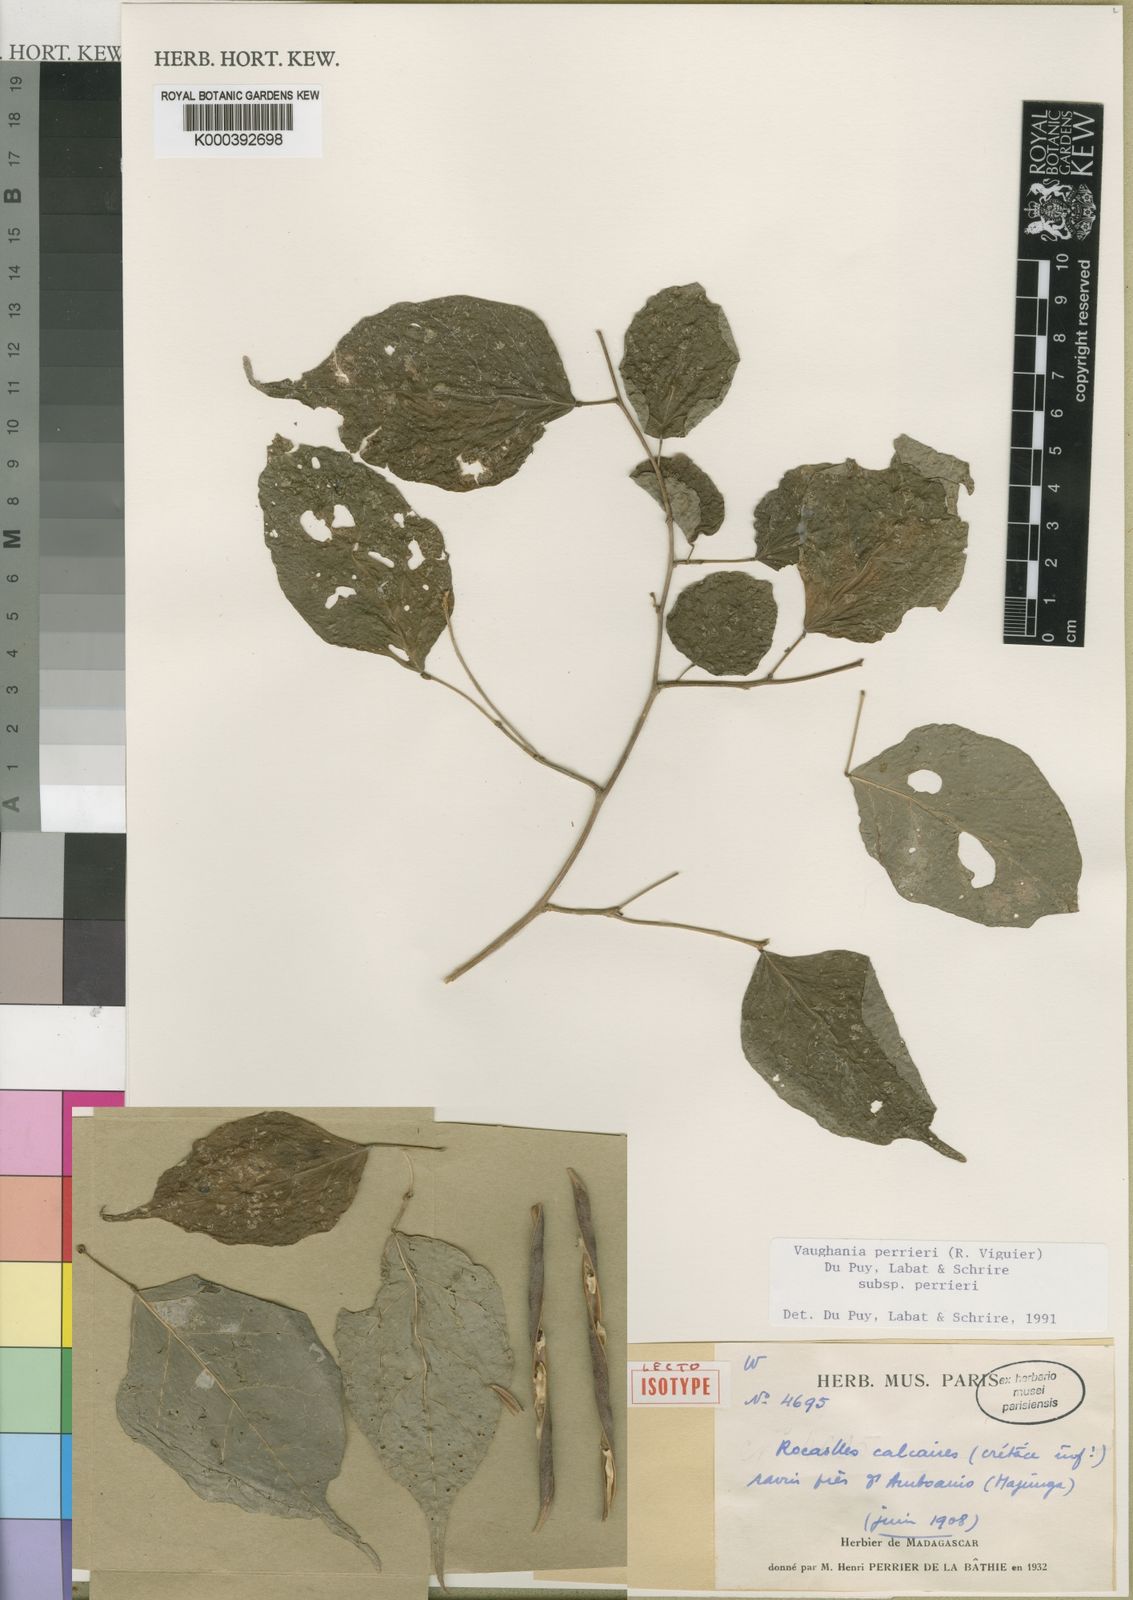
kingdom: Animalia
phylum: Cnidaria
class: Anthozoa
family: Vaughaniidae
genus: Vaughania
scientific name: Vaughania
